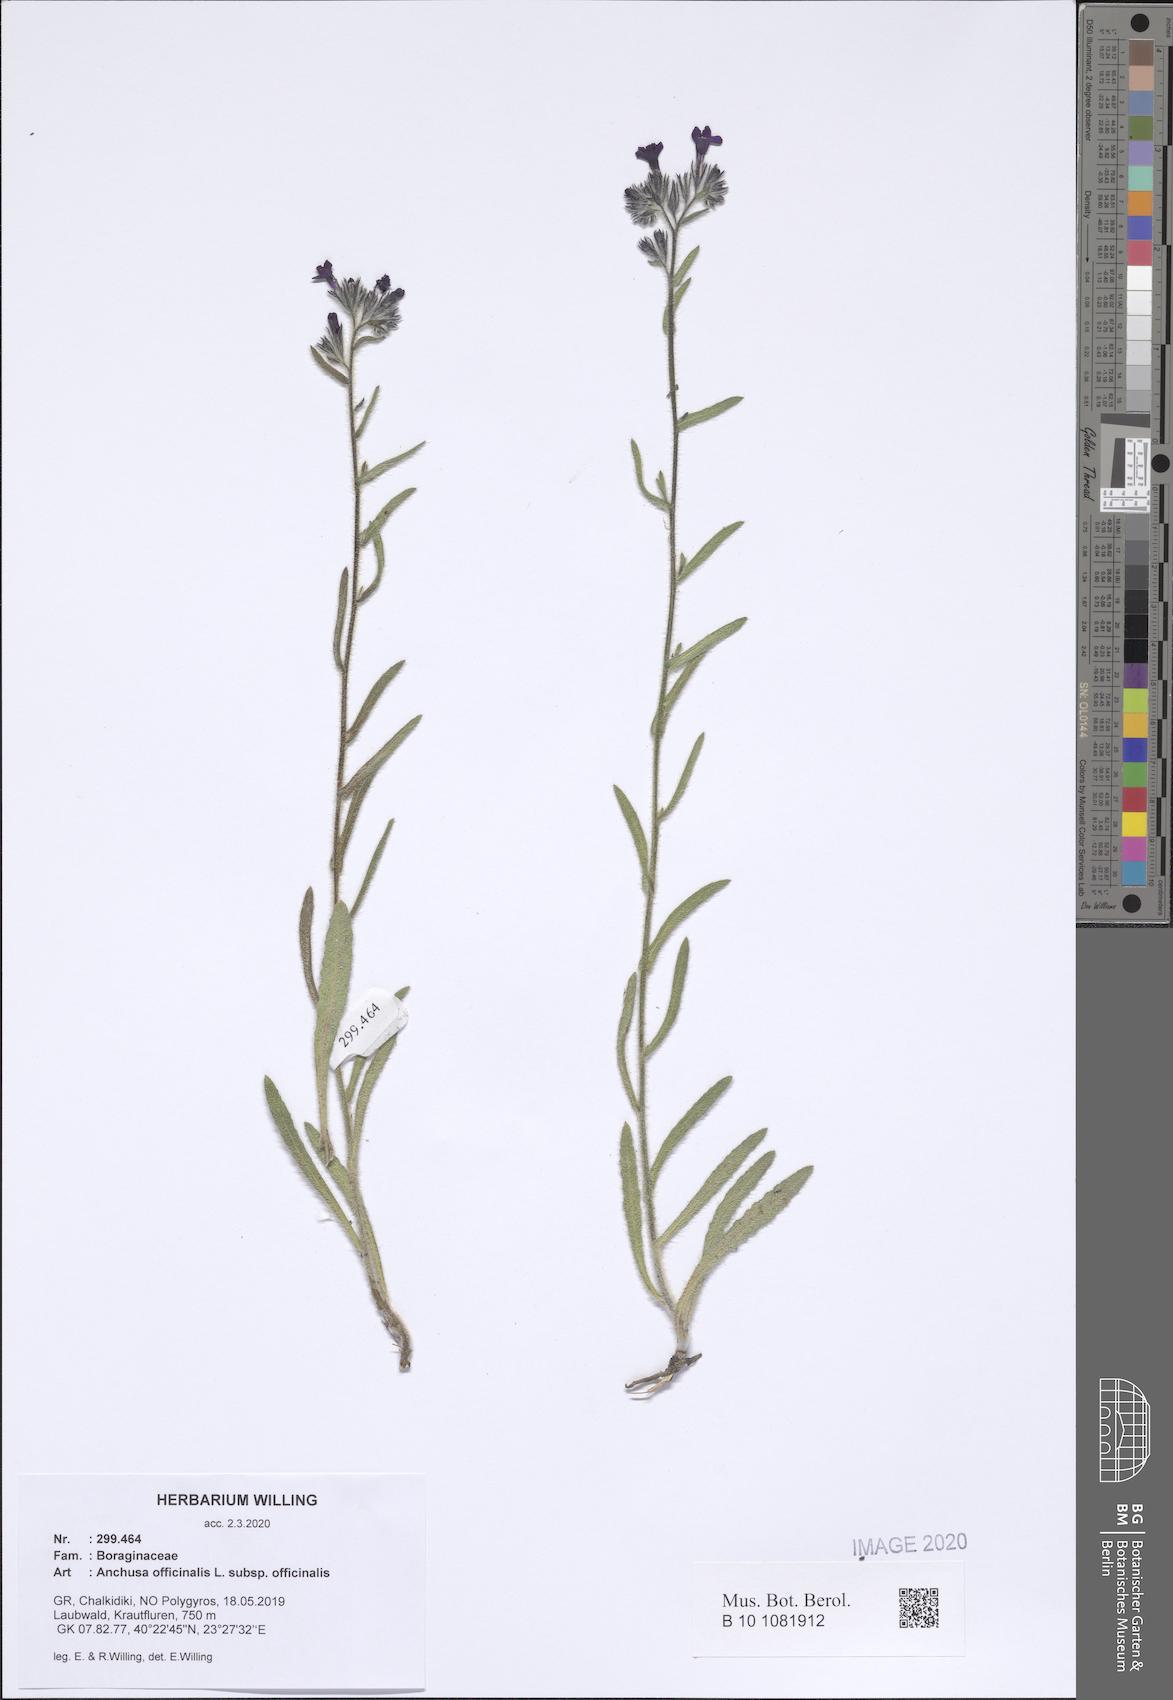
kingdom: Plantae
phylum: Tracheophyta
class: Magnoliopsida
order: Boraginales
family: Boraginaceae
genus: Anchusa
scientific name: Anchusa officinalis
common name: Alkanet
